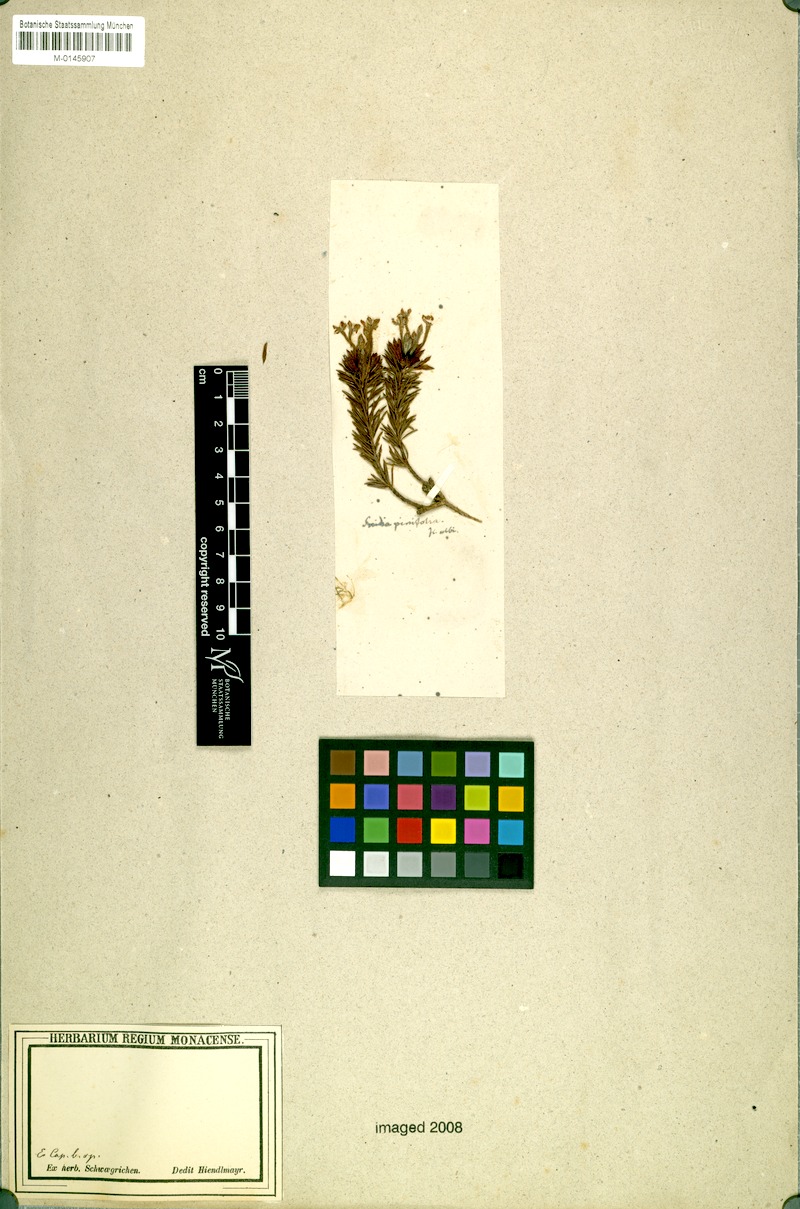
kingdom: Plantae
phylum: Tracheophyta
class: Magnoliopsida
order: Malvales
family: Thymelaeaceae
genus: Gnidia
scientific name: Gnidia pinifolia
